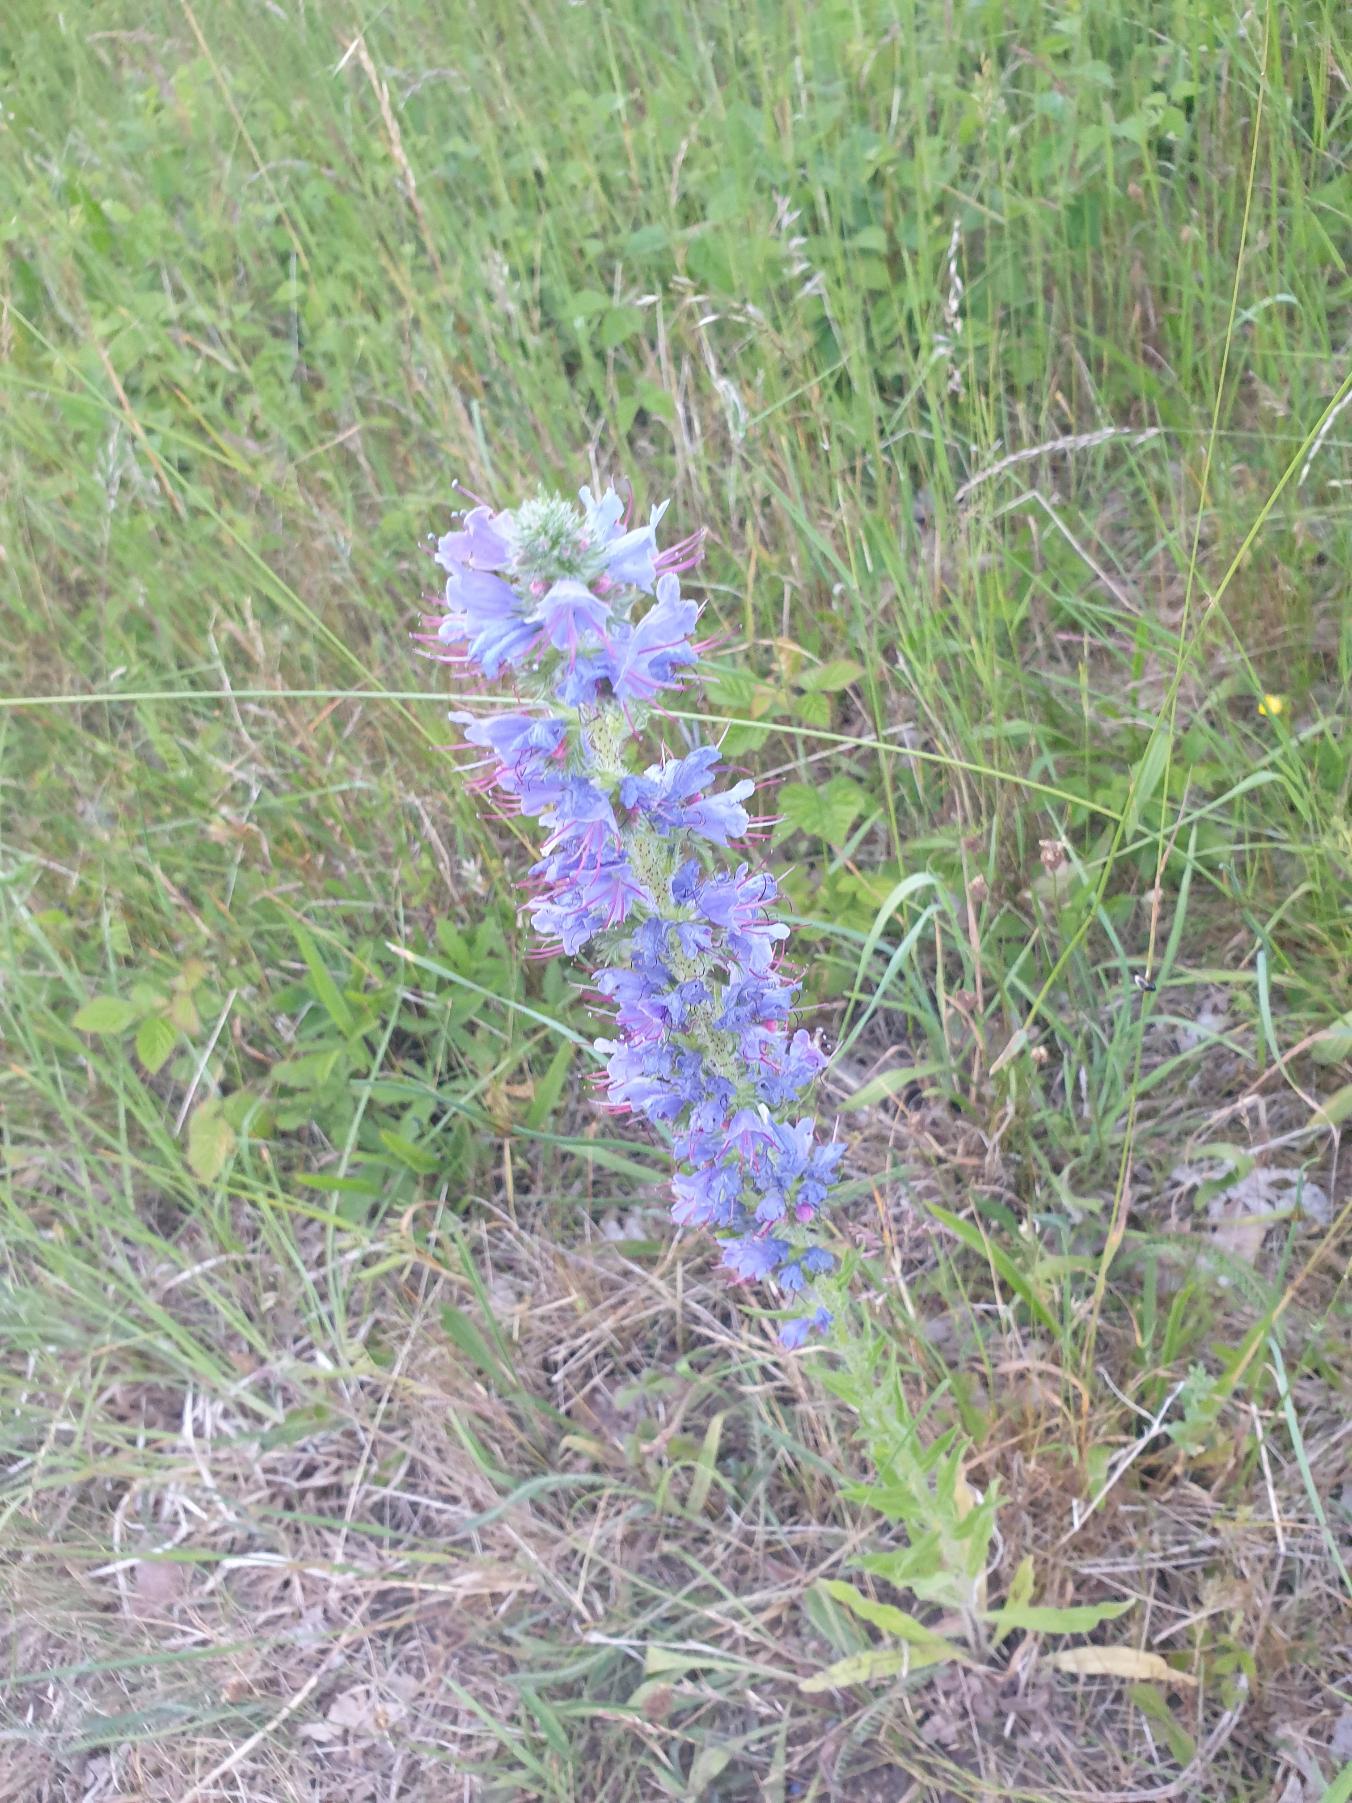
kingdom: Plantae
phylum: Tracheophyta
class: Magnoliopsida
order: Boraginales
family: Boraginaceae
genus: Echium
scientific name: Echium vulgare
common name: Slangehoved
